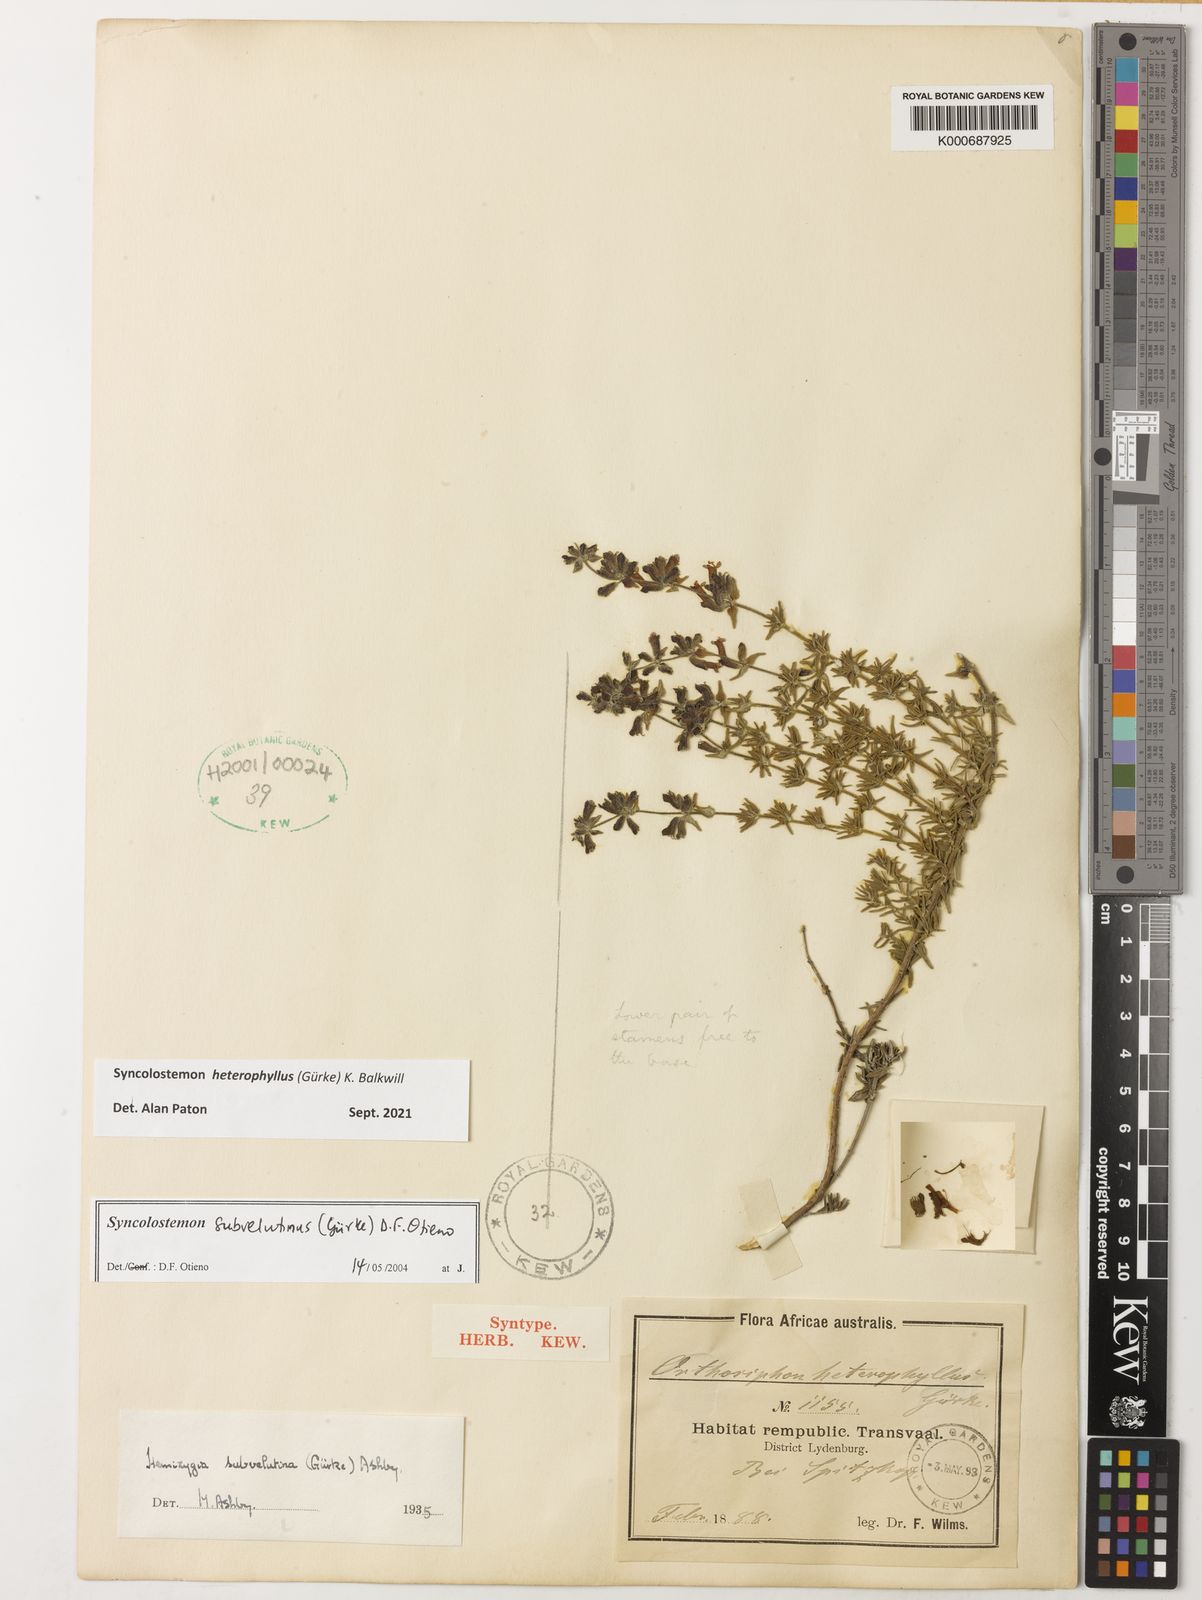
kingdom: Plantae
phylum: Tracheophyta
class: Magnoliopsida
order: Lamiales
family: Lamiaceae
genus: Syncolostemon
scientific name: Syncolostemon subvelutinus
